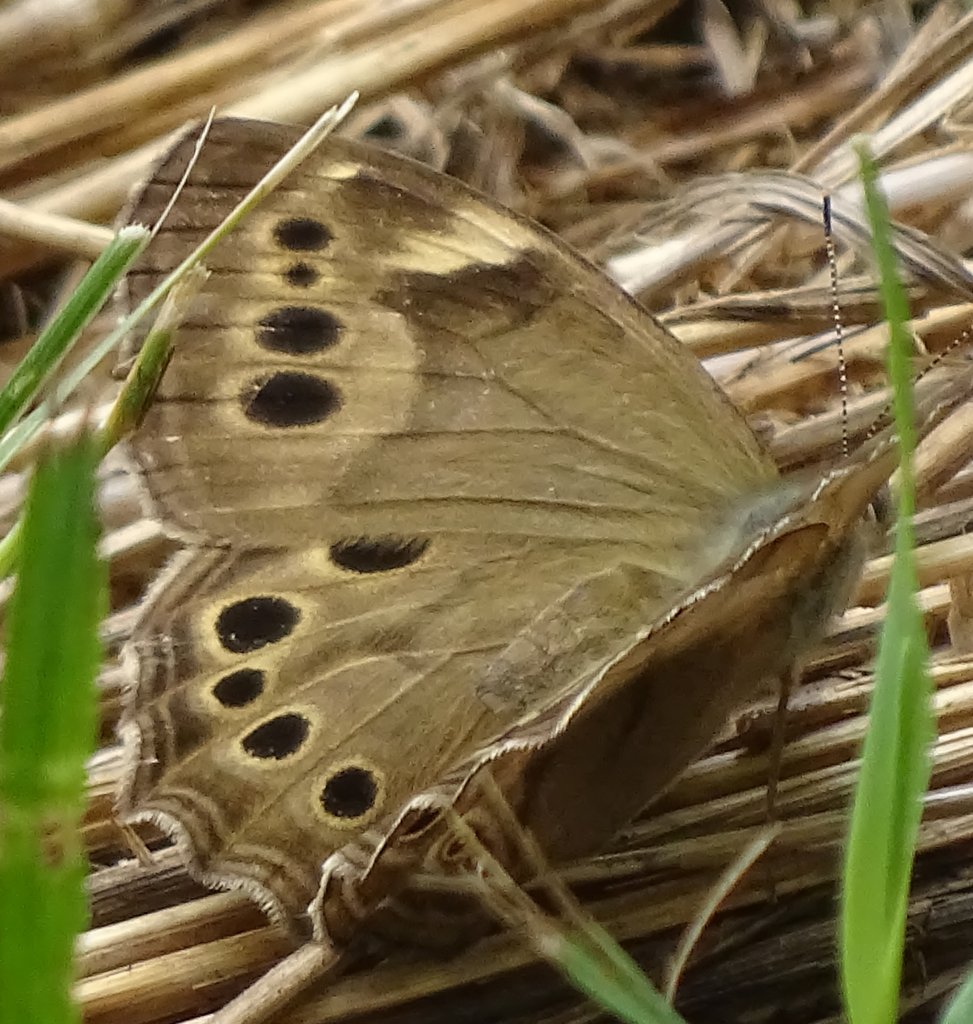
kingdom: Animalia
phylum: Arthropoda
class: Insecta
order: Lepidoptera
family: Nymphalidae
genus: Lethe
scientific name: Lethe anthedon
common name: Northern Pearly-Eye
